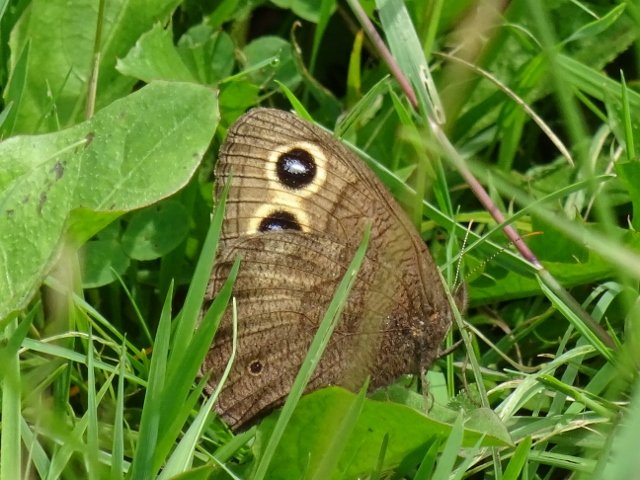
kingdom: Animalia
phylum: Arthropoda
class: Insecta
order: Lepidoptera
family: Nymphalidae
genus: Cercyonis
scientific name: Cercyonis pegala
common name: Common Wood-Nymph
